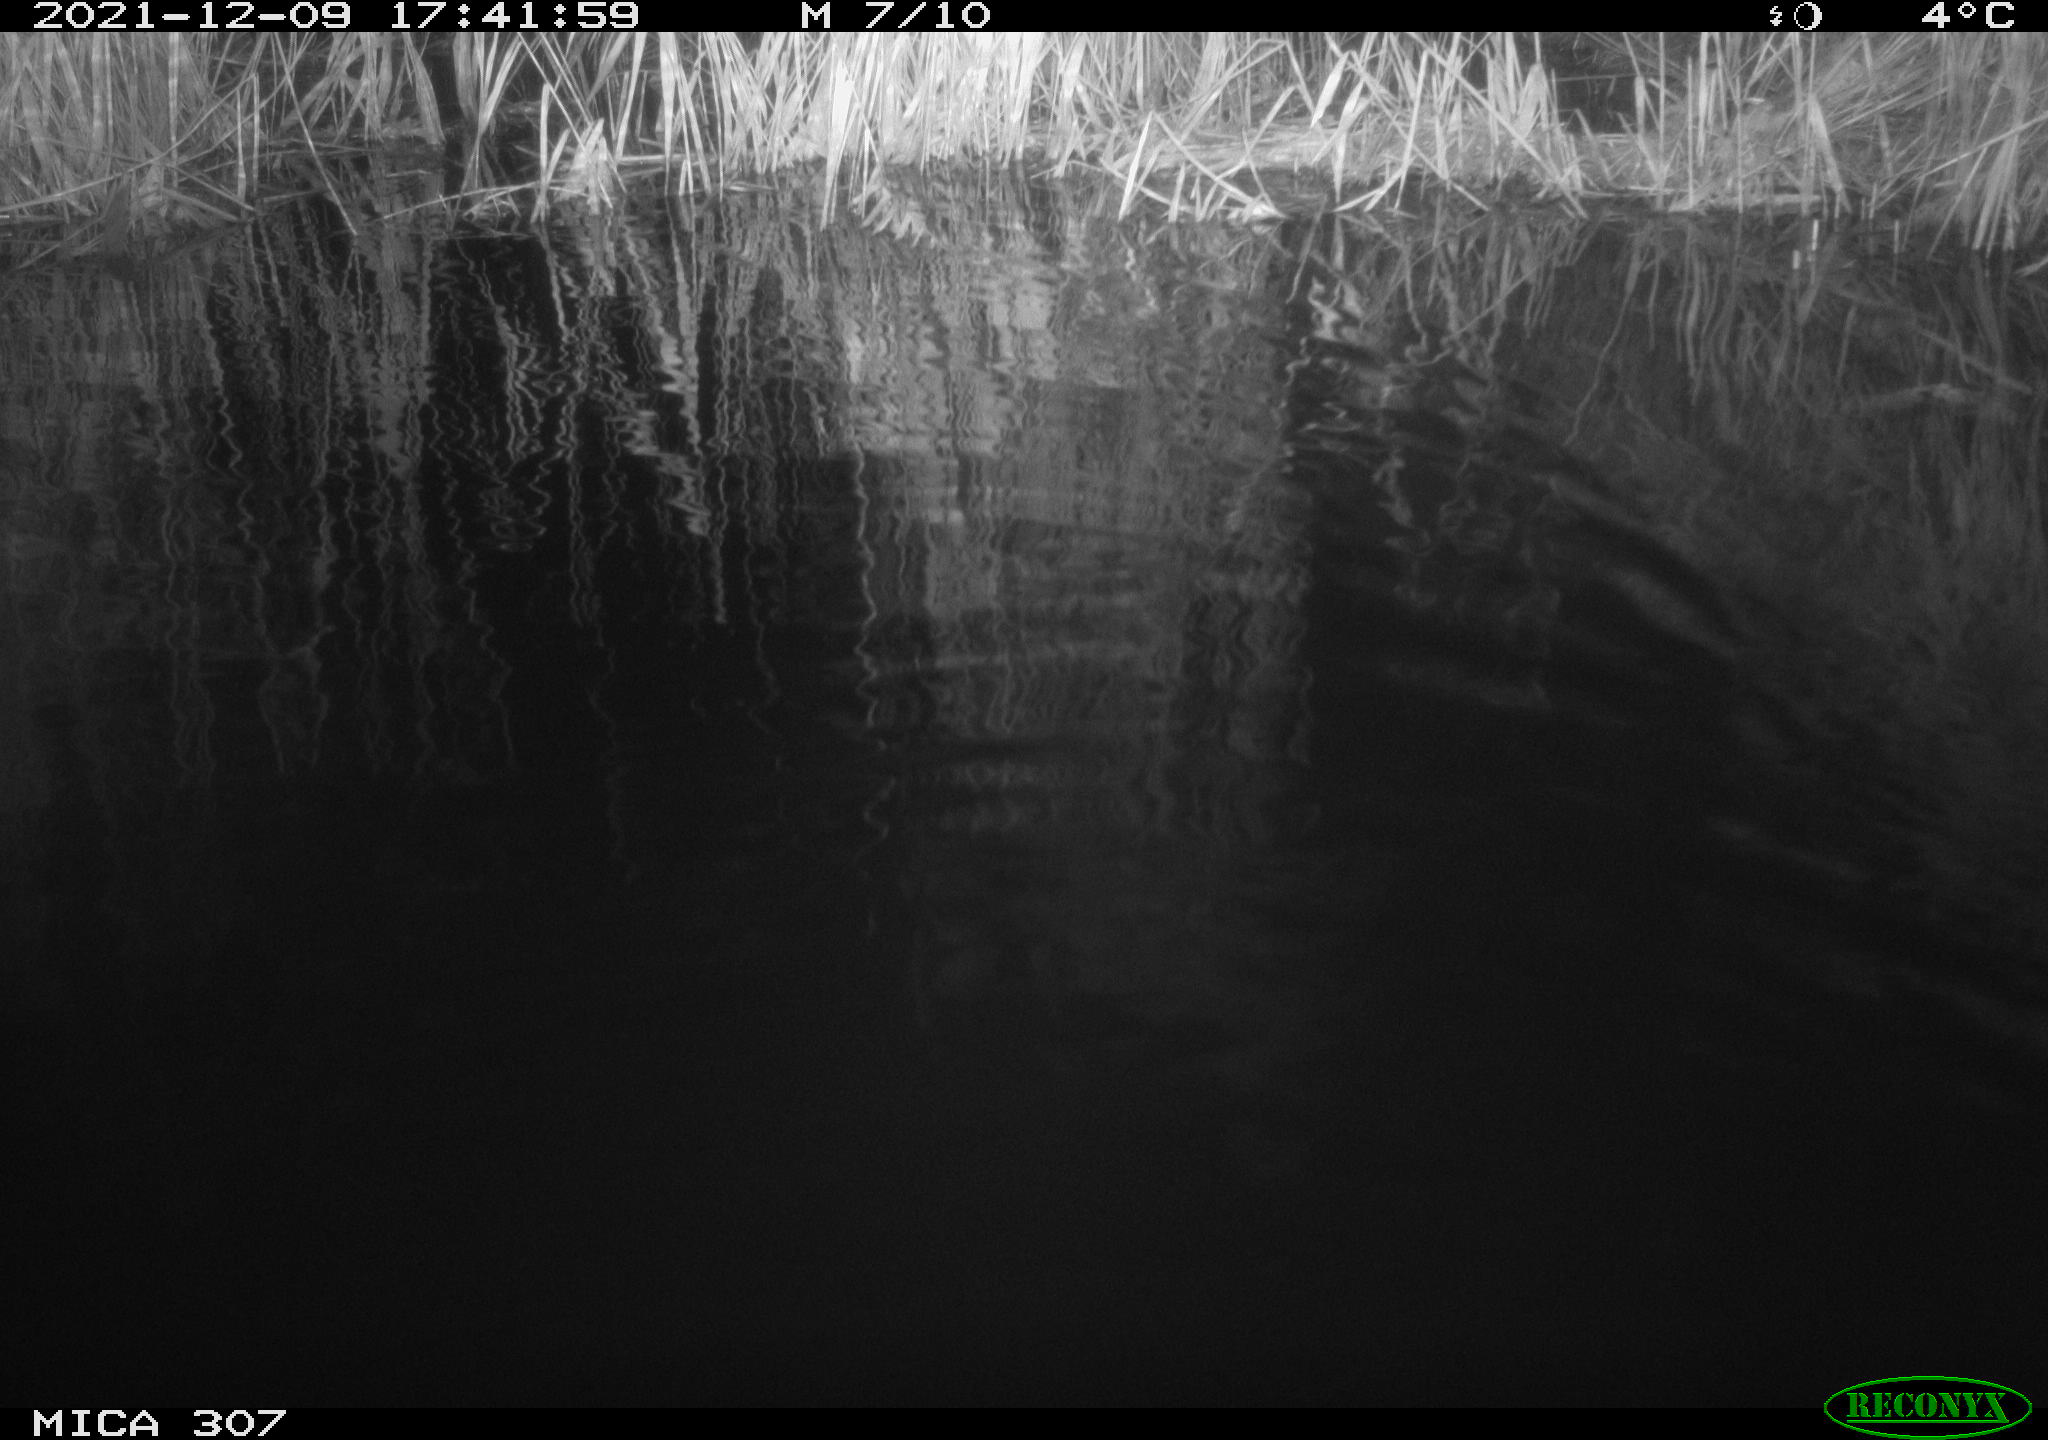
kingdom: Animalia
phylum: Chordata
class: Mammalia
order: Rodentia
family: Cricetidae
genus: Ondatra
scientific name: Ondatra zibethicus
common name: Muskrat
